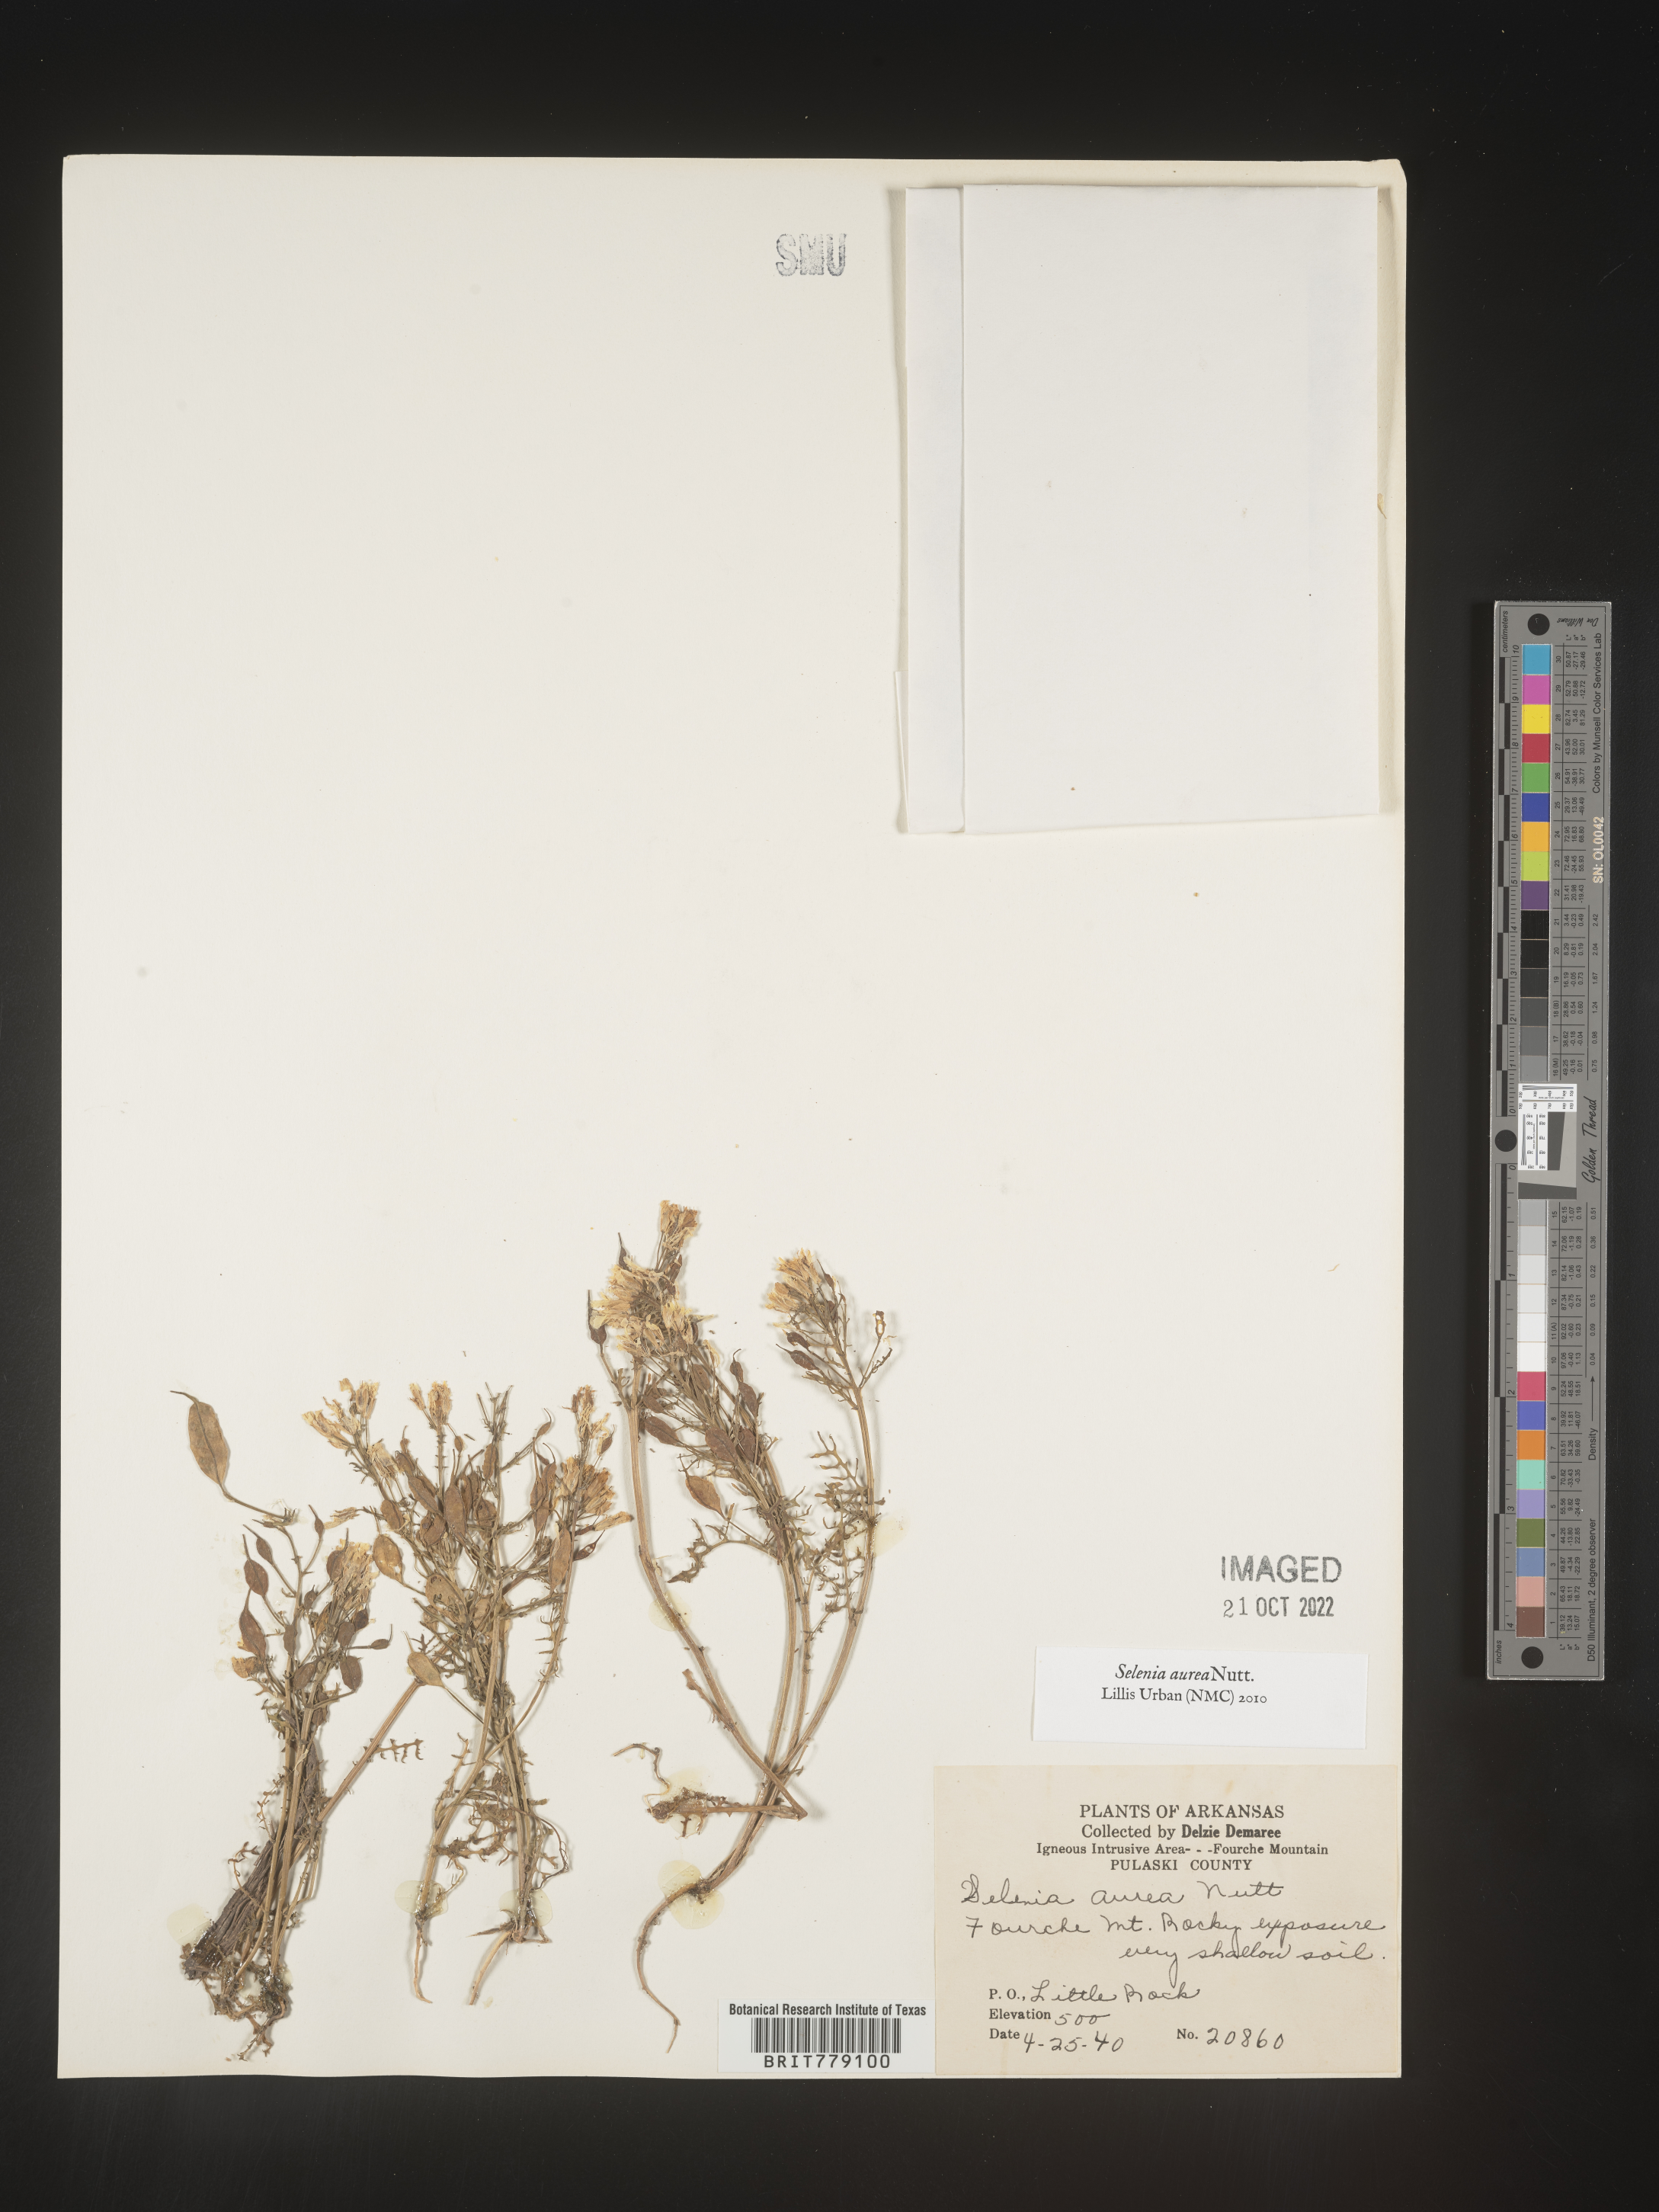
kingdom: Plantae
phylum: Tracheophyta
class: Magnoliopsida
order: Brassicales
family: Brassicaceae
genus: Selenia
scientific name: Selenia
